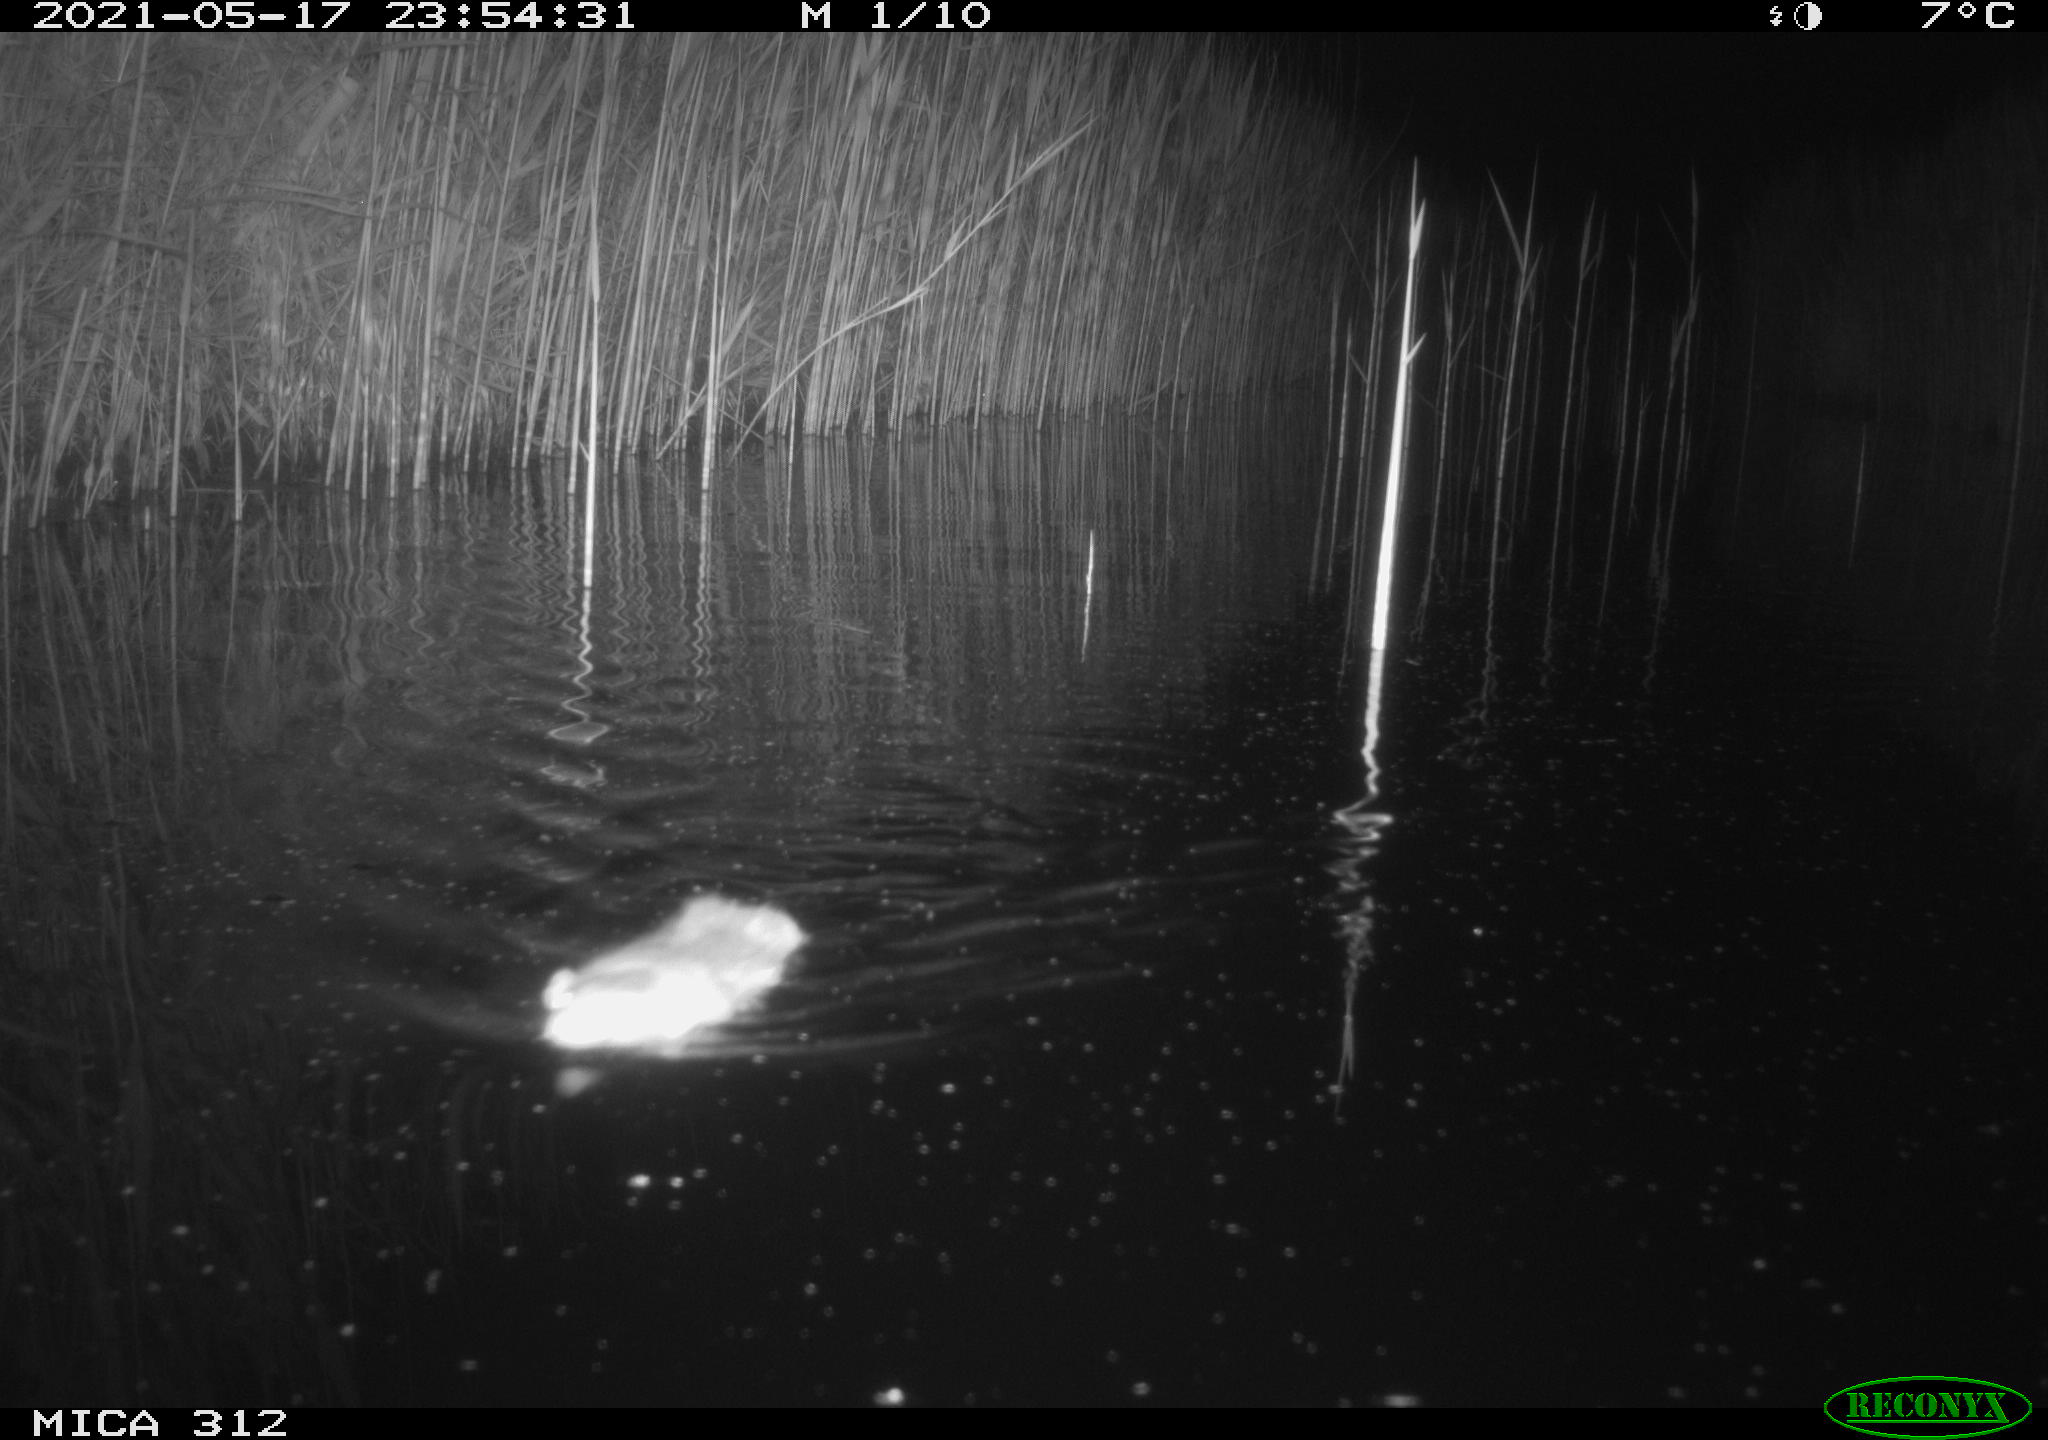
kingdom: Animalia
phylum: Chordata
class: Mammalia
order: Rodentia
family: Muridae
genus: Rattus
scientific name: Rattus norvegicus
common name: Brown rat
